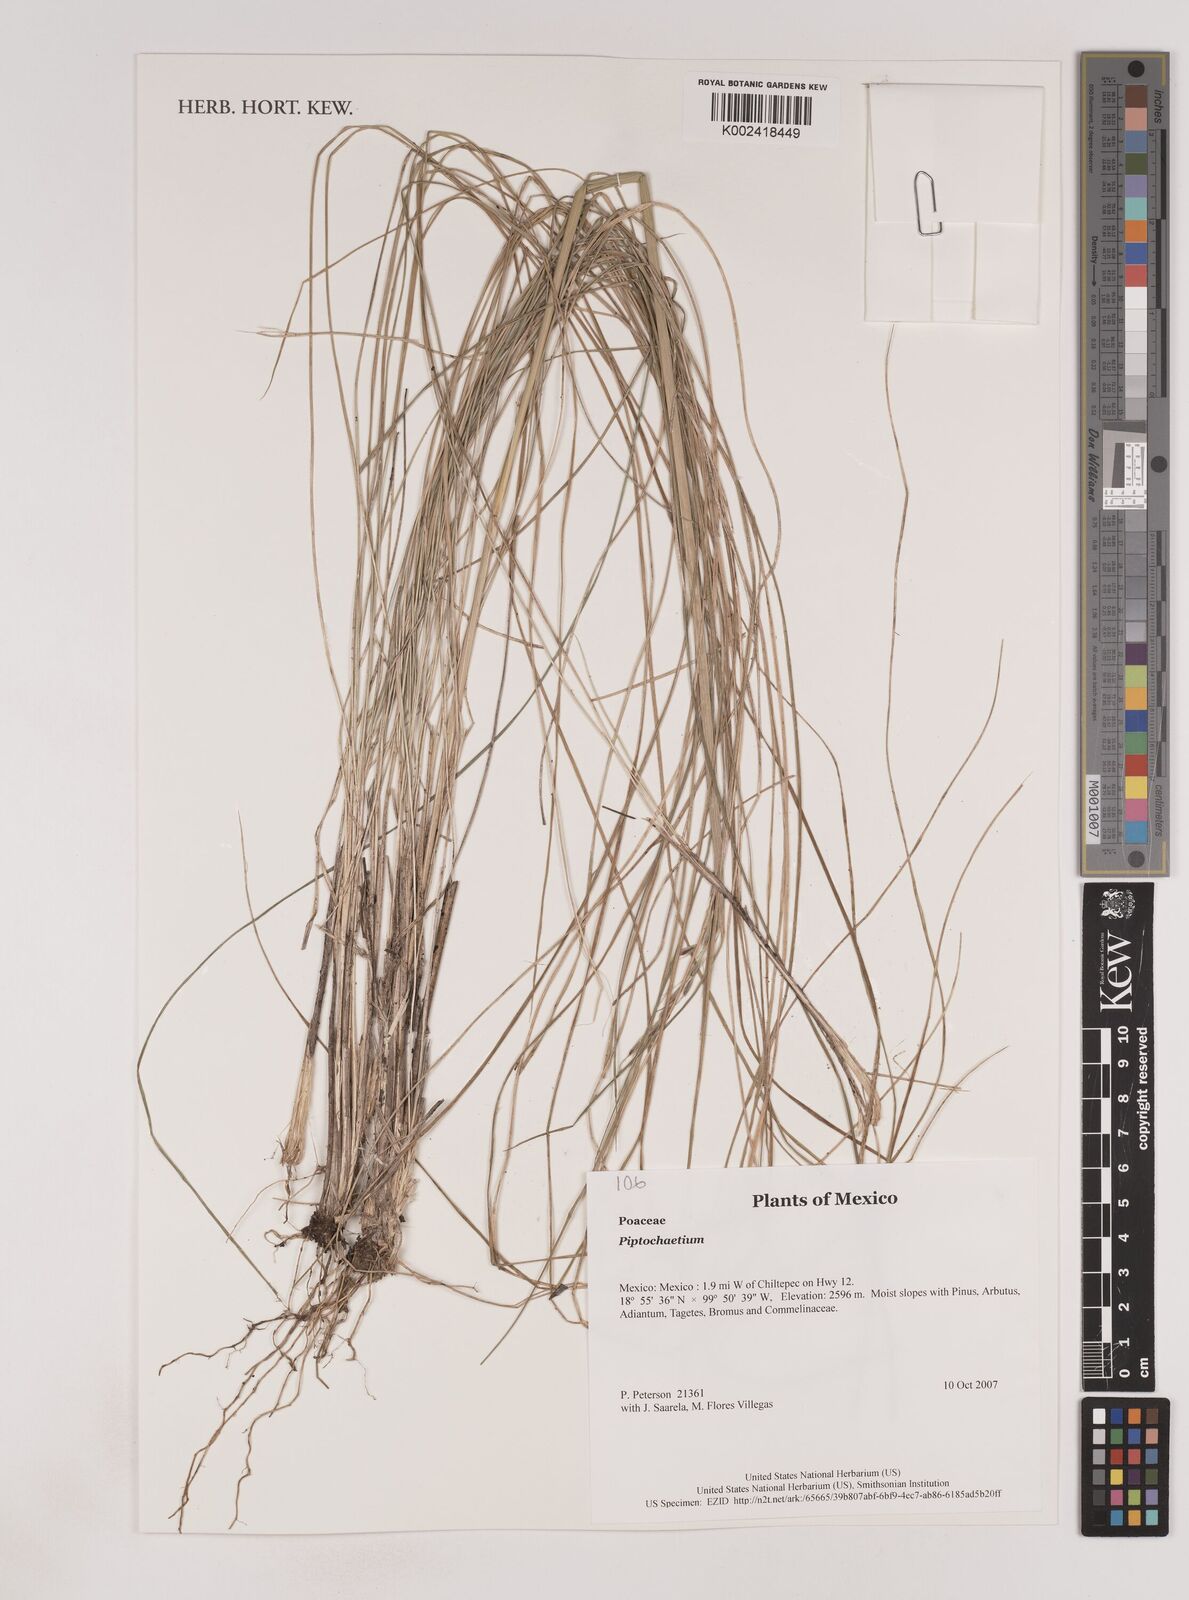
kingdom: Plantae
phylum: Tracheophyta
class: Liliopsida
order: Poales
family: Poaceae
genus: Piptochaetium
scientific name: Piptochaetium
